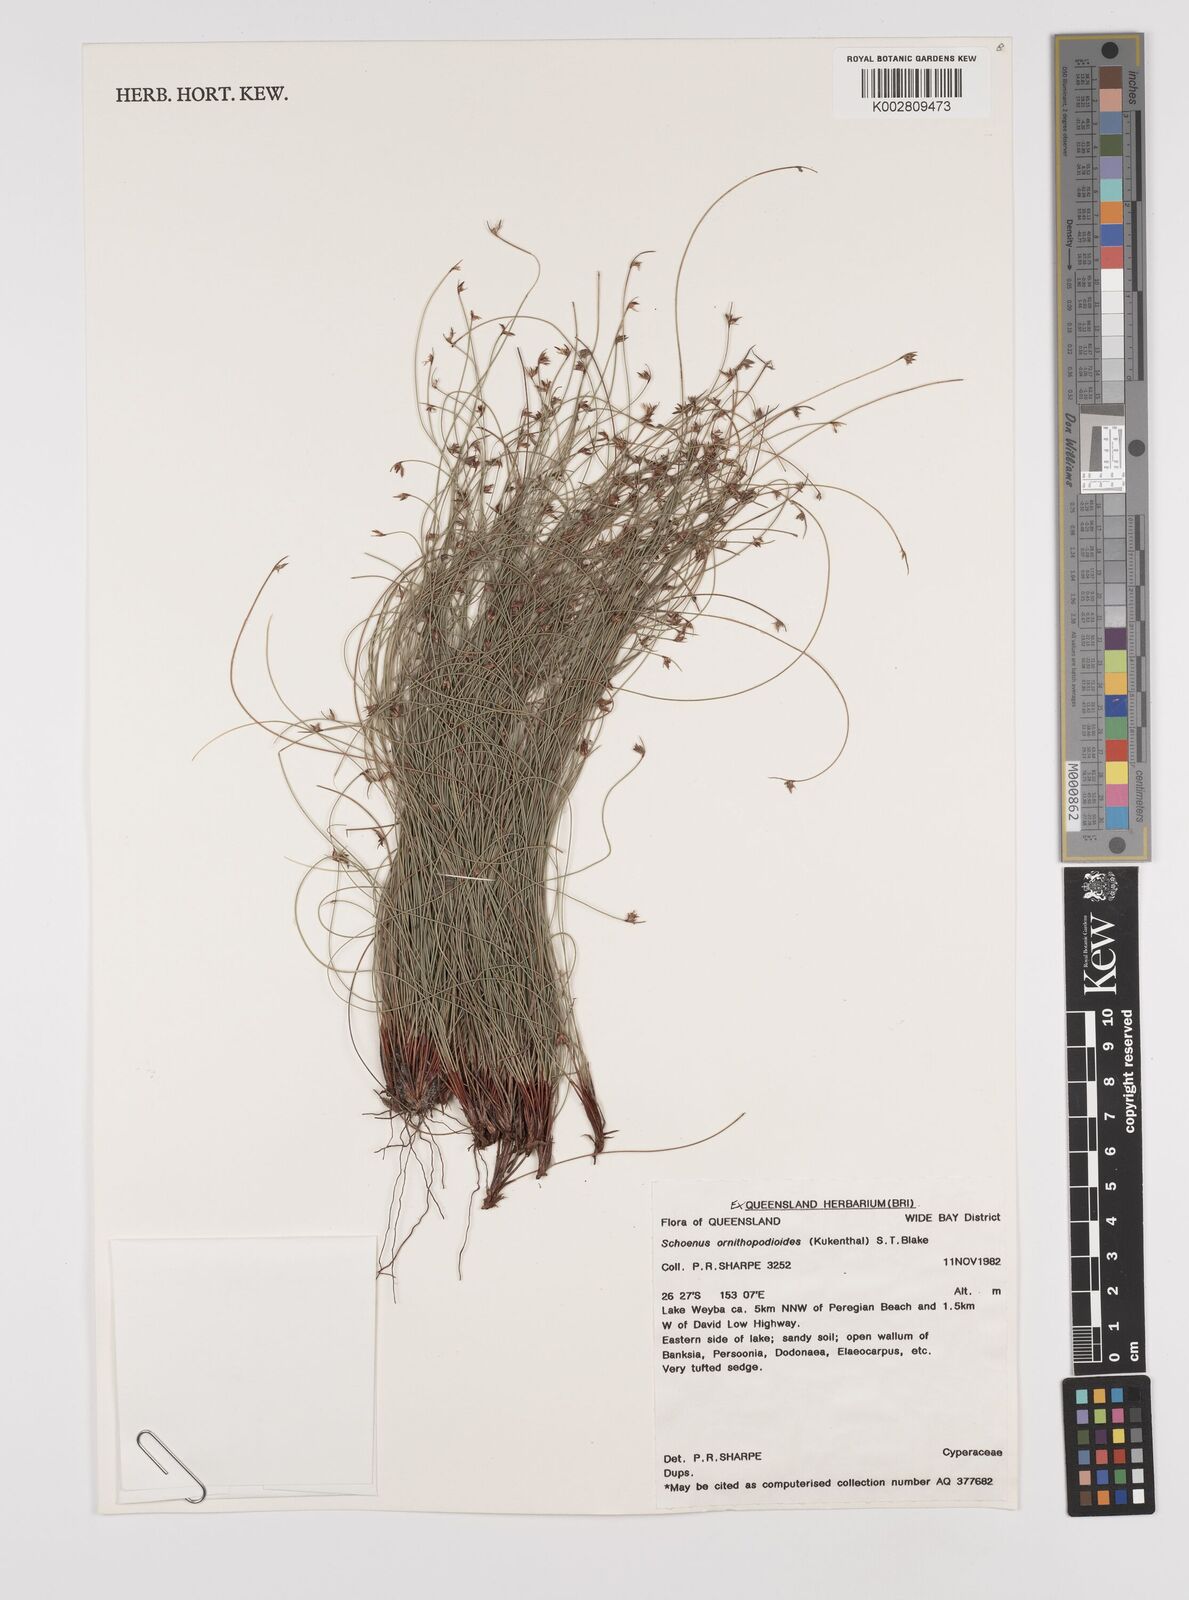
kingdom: Plantae
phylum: Tracheophyta
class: Liliopsida
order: Poales
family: Cyperaceae
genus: Schoenus
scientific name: Schoenus ornithopodioides
